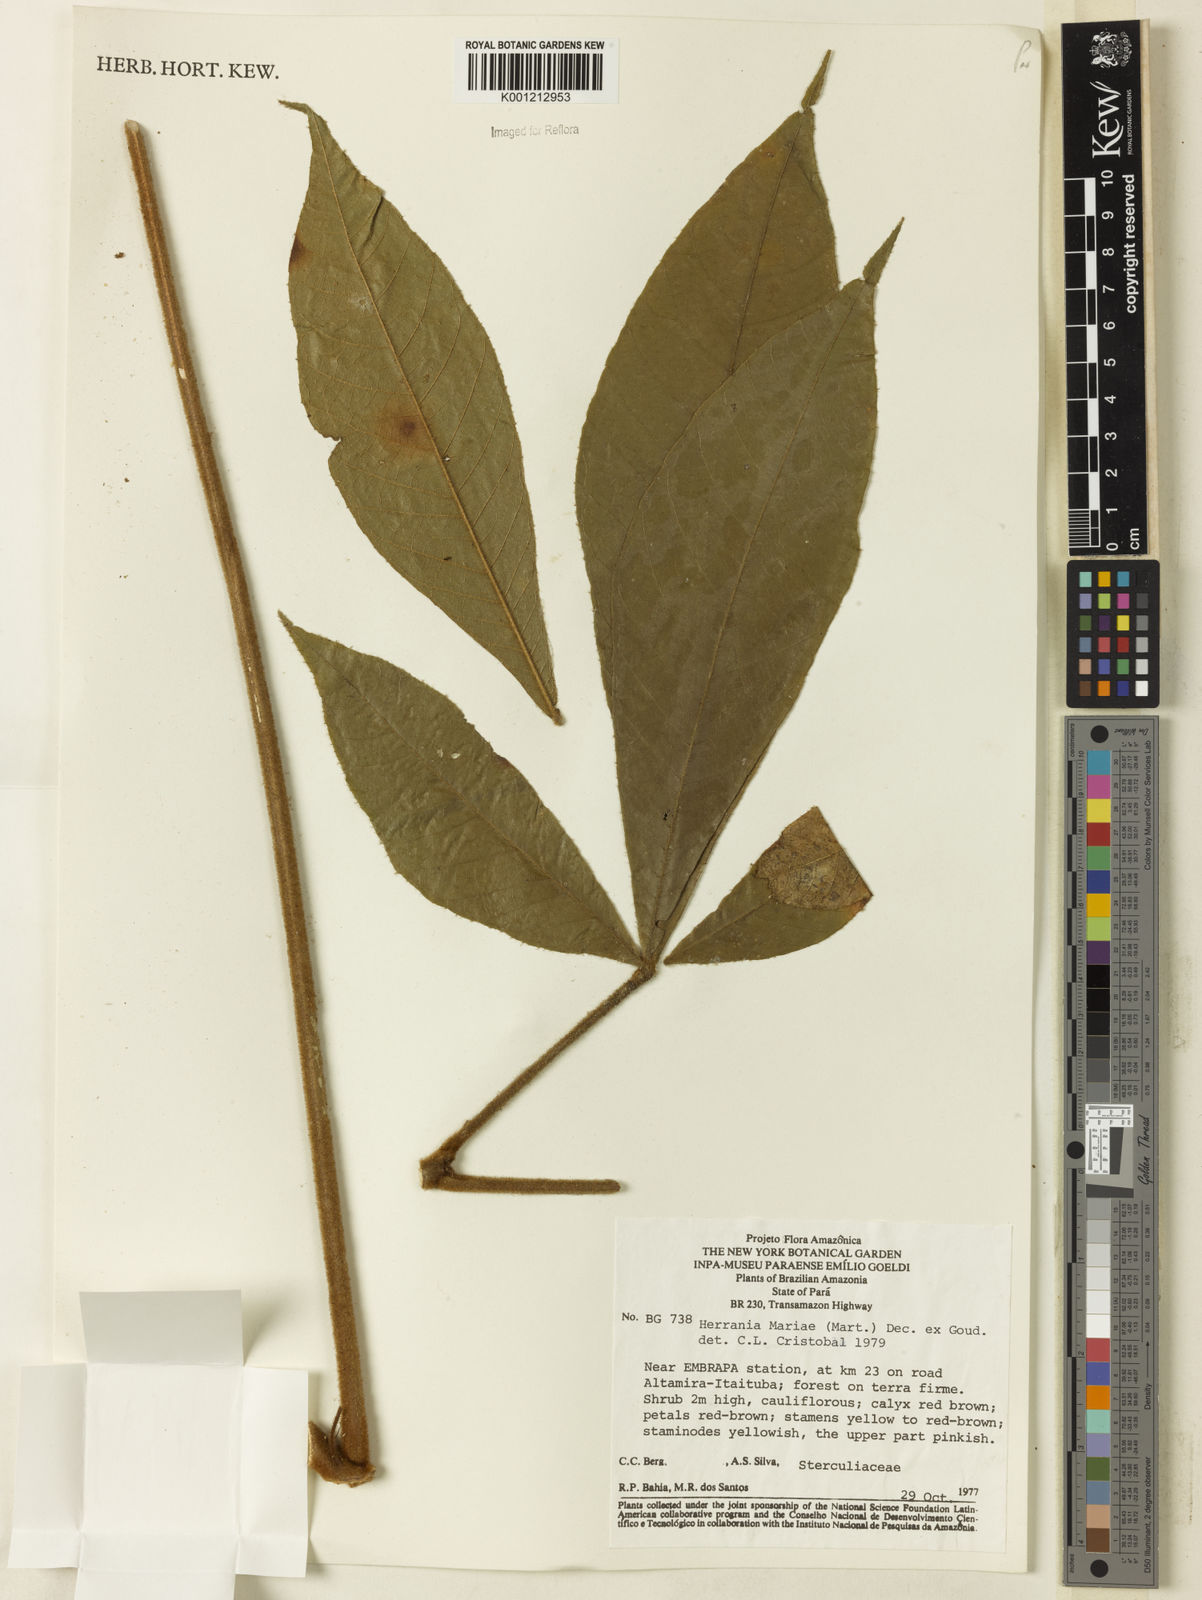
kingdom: Plantae
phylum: Tracheophyta
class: Magnoliopsida
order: Malvales
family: Malvaceae
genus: Herrania
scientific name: Herrania mariae
